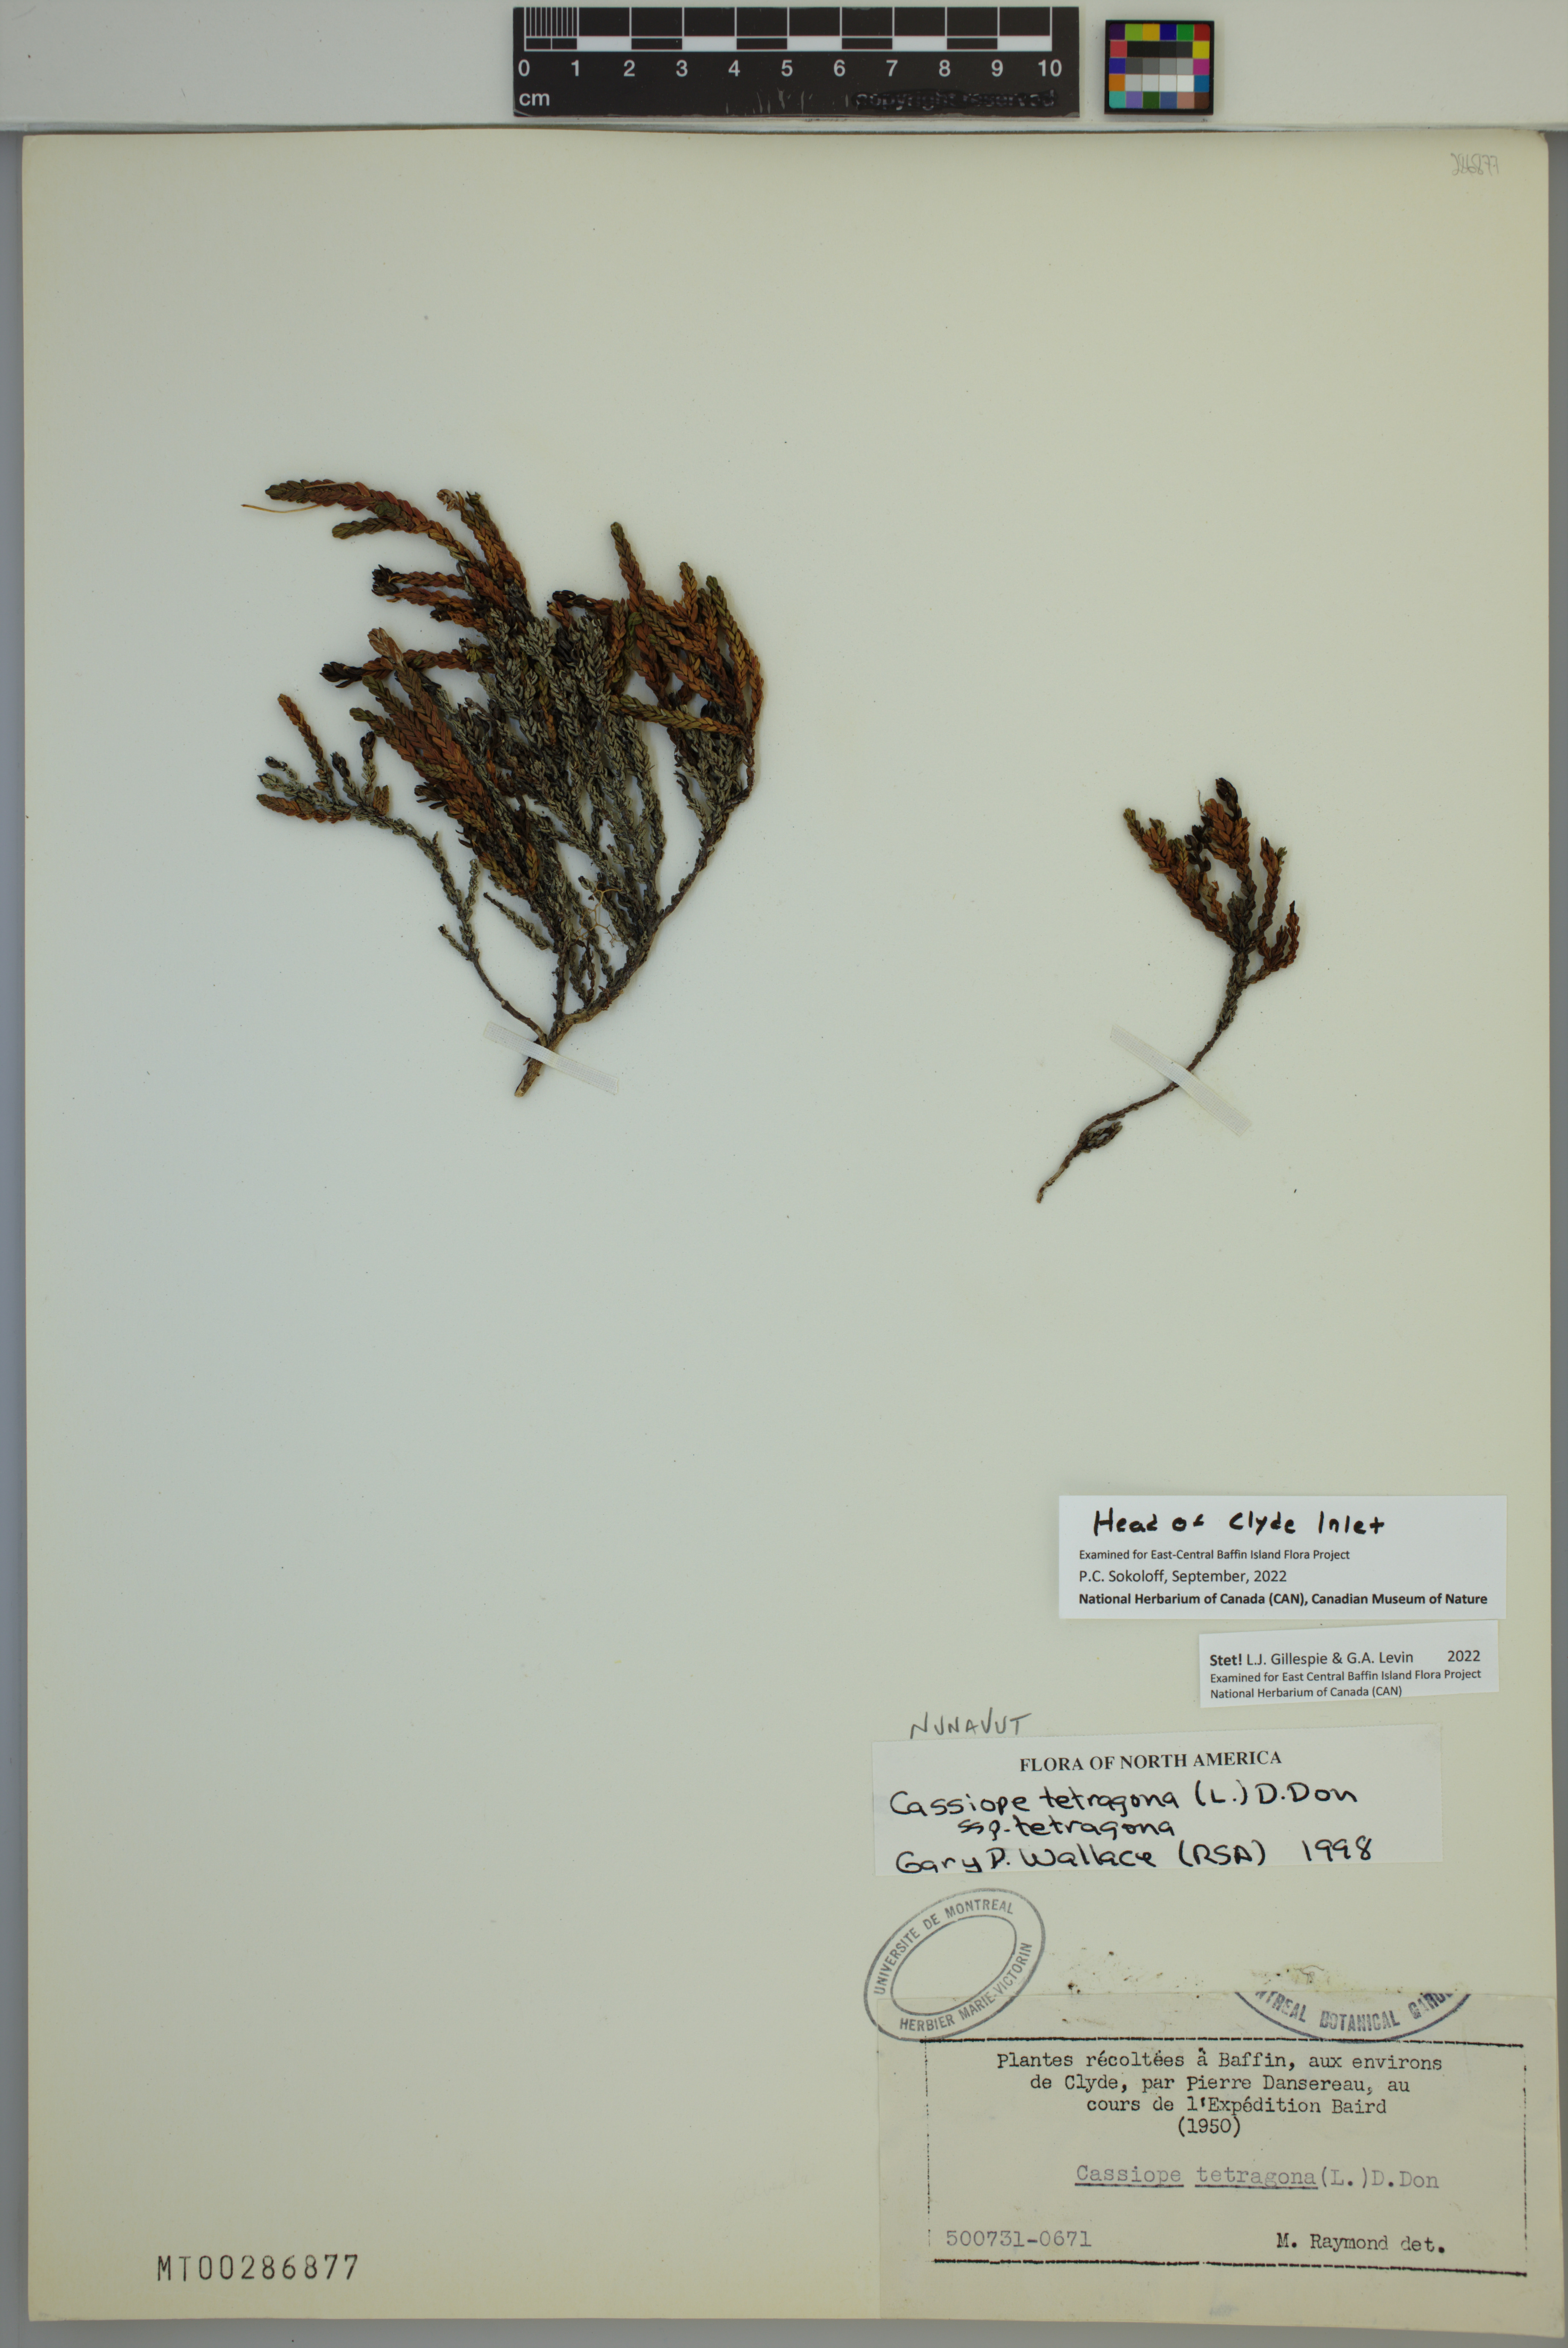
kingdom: Plantae
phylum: Tracheophyta
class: Magnoliopsida
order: Ericales
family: Ericaceae
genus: Cassiope
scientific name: Cassiope tetragona
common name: Arctic bell heather
